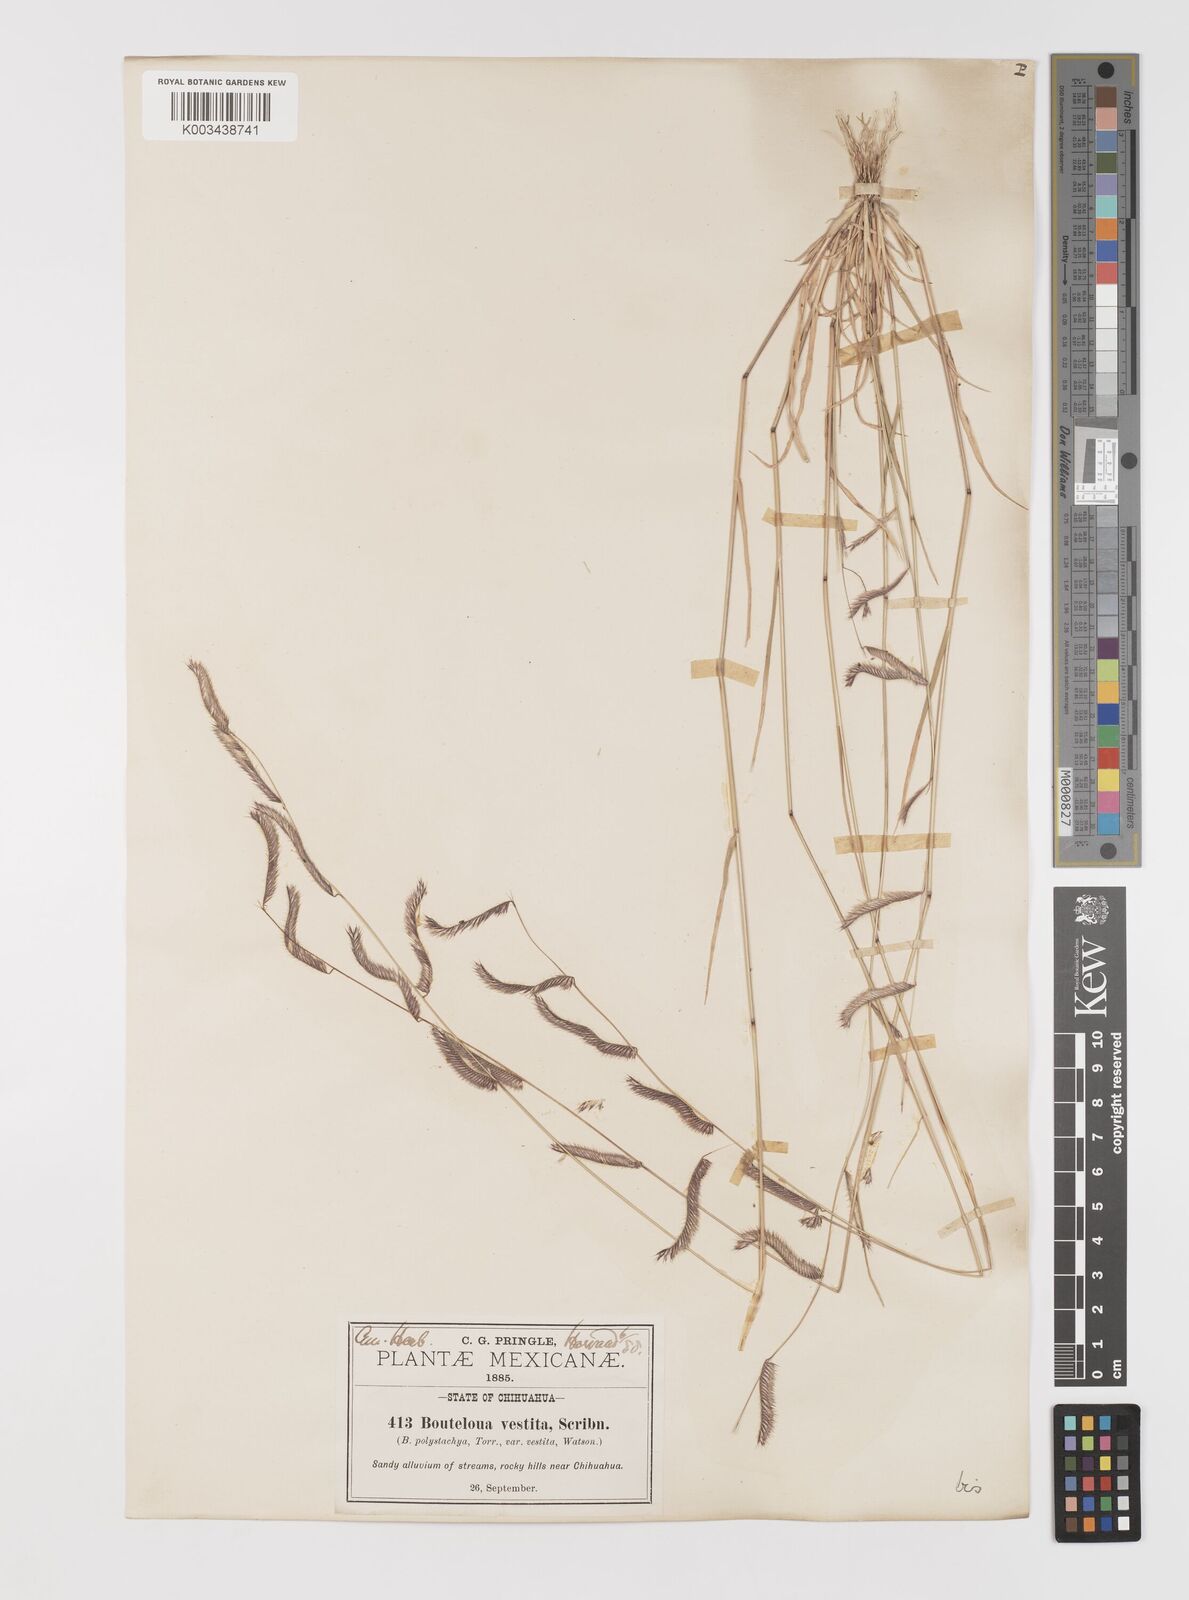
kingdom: Plantae
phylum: Tracheophyta
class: Liliopsida
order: Poales
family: Poaceae
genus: Bouteloua
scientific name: Bouteloua parryi
